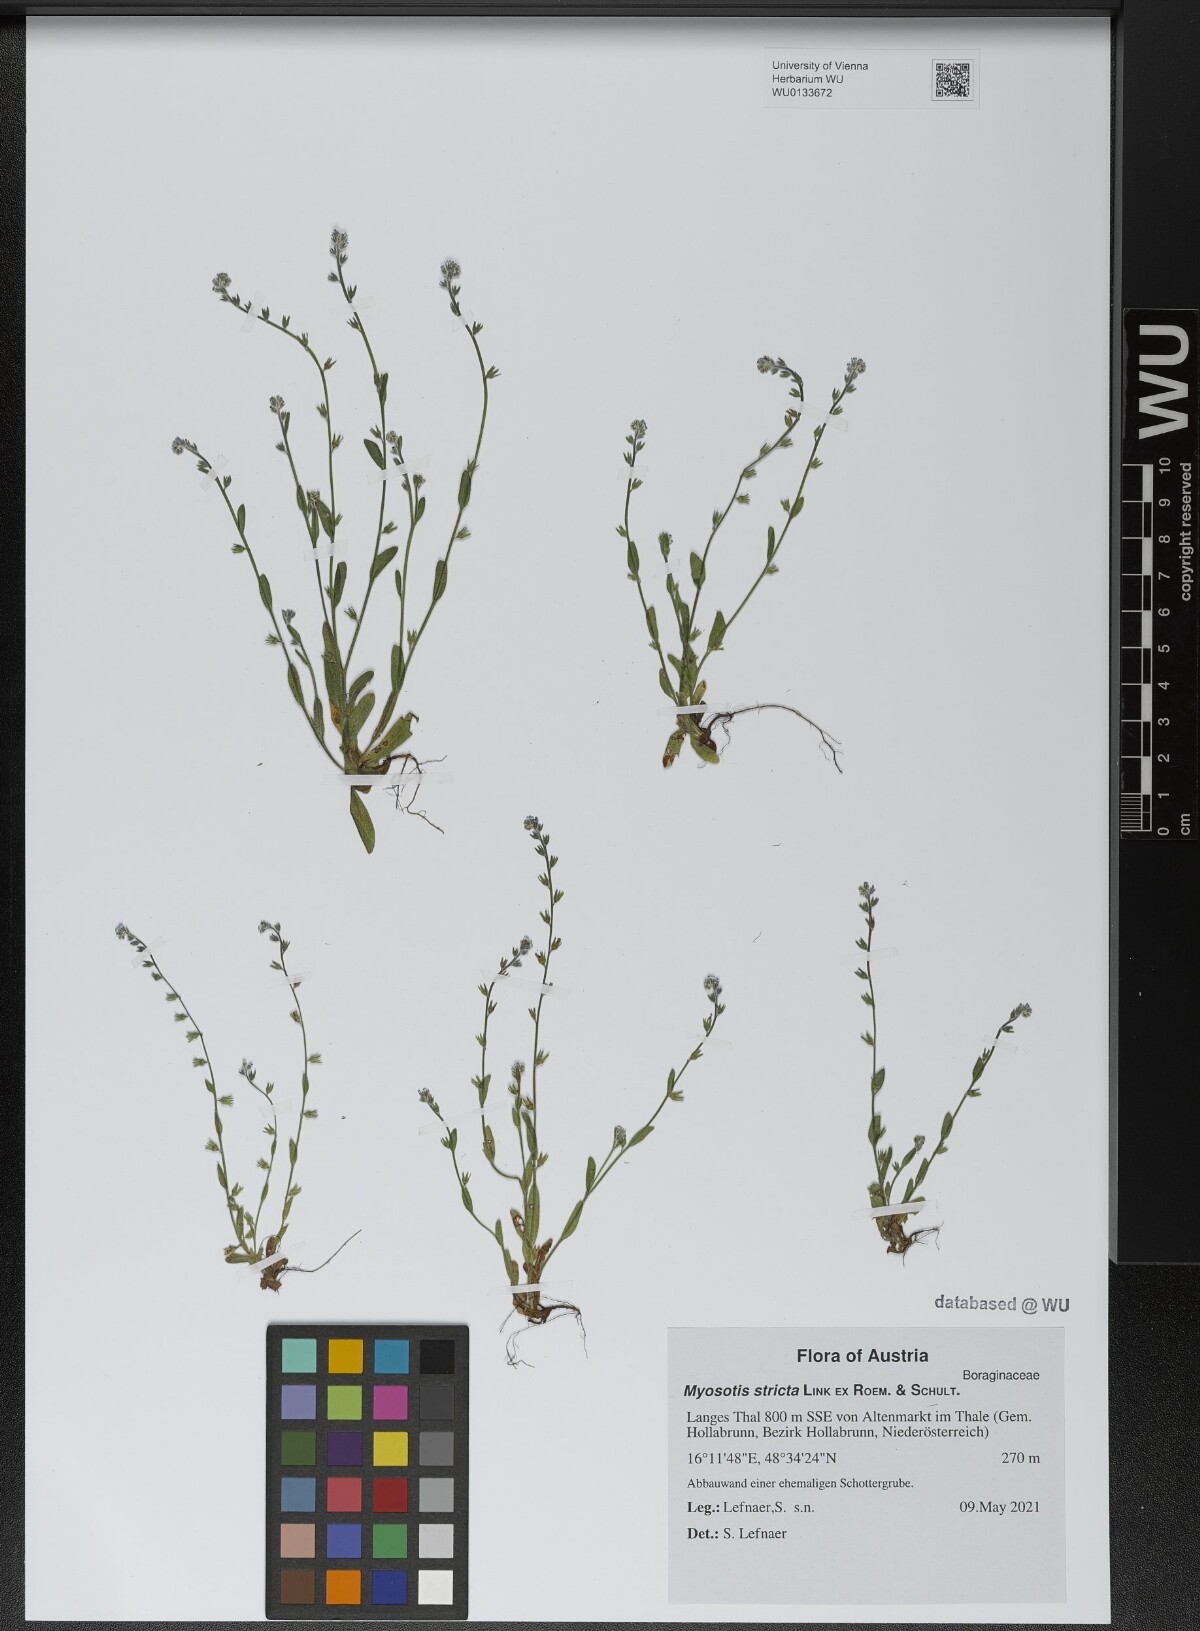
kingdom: Plantae
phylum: Tracheophyta
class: Magnoliopsida
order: Boraginales
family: Boraginaceae
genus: Myosotis
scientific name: Myosotis stricta
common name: Strict forget-me-not
